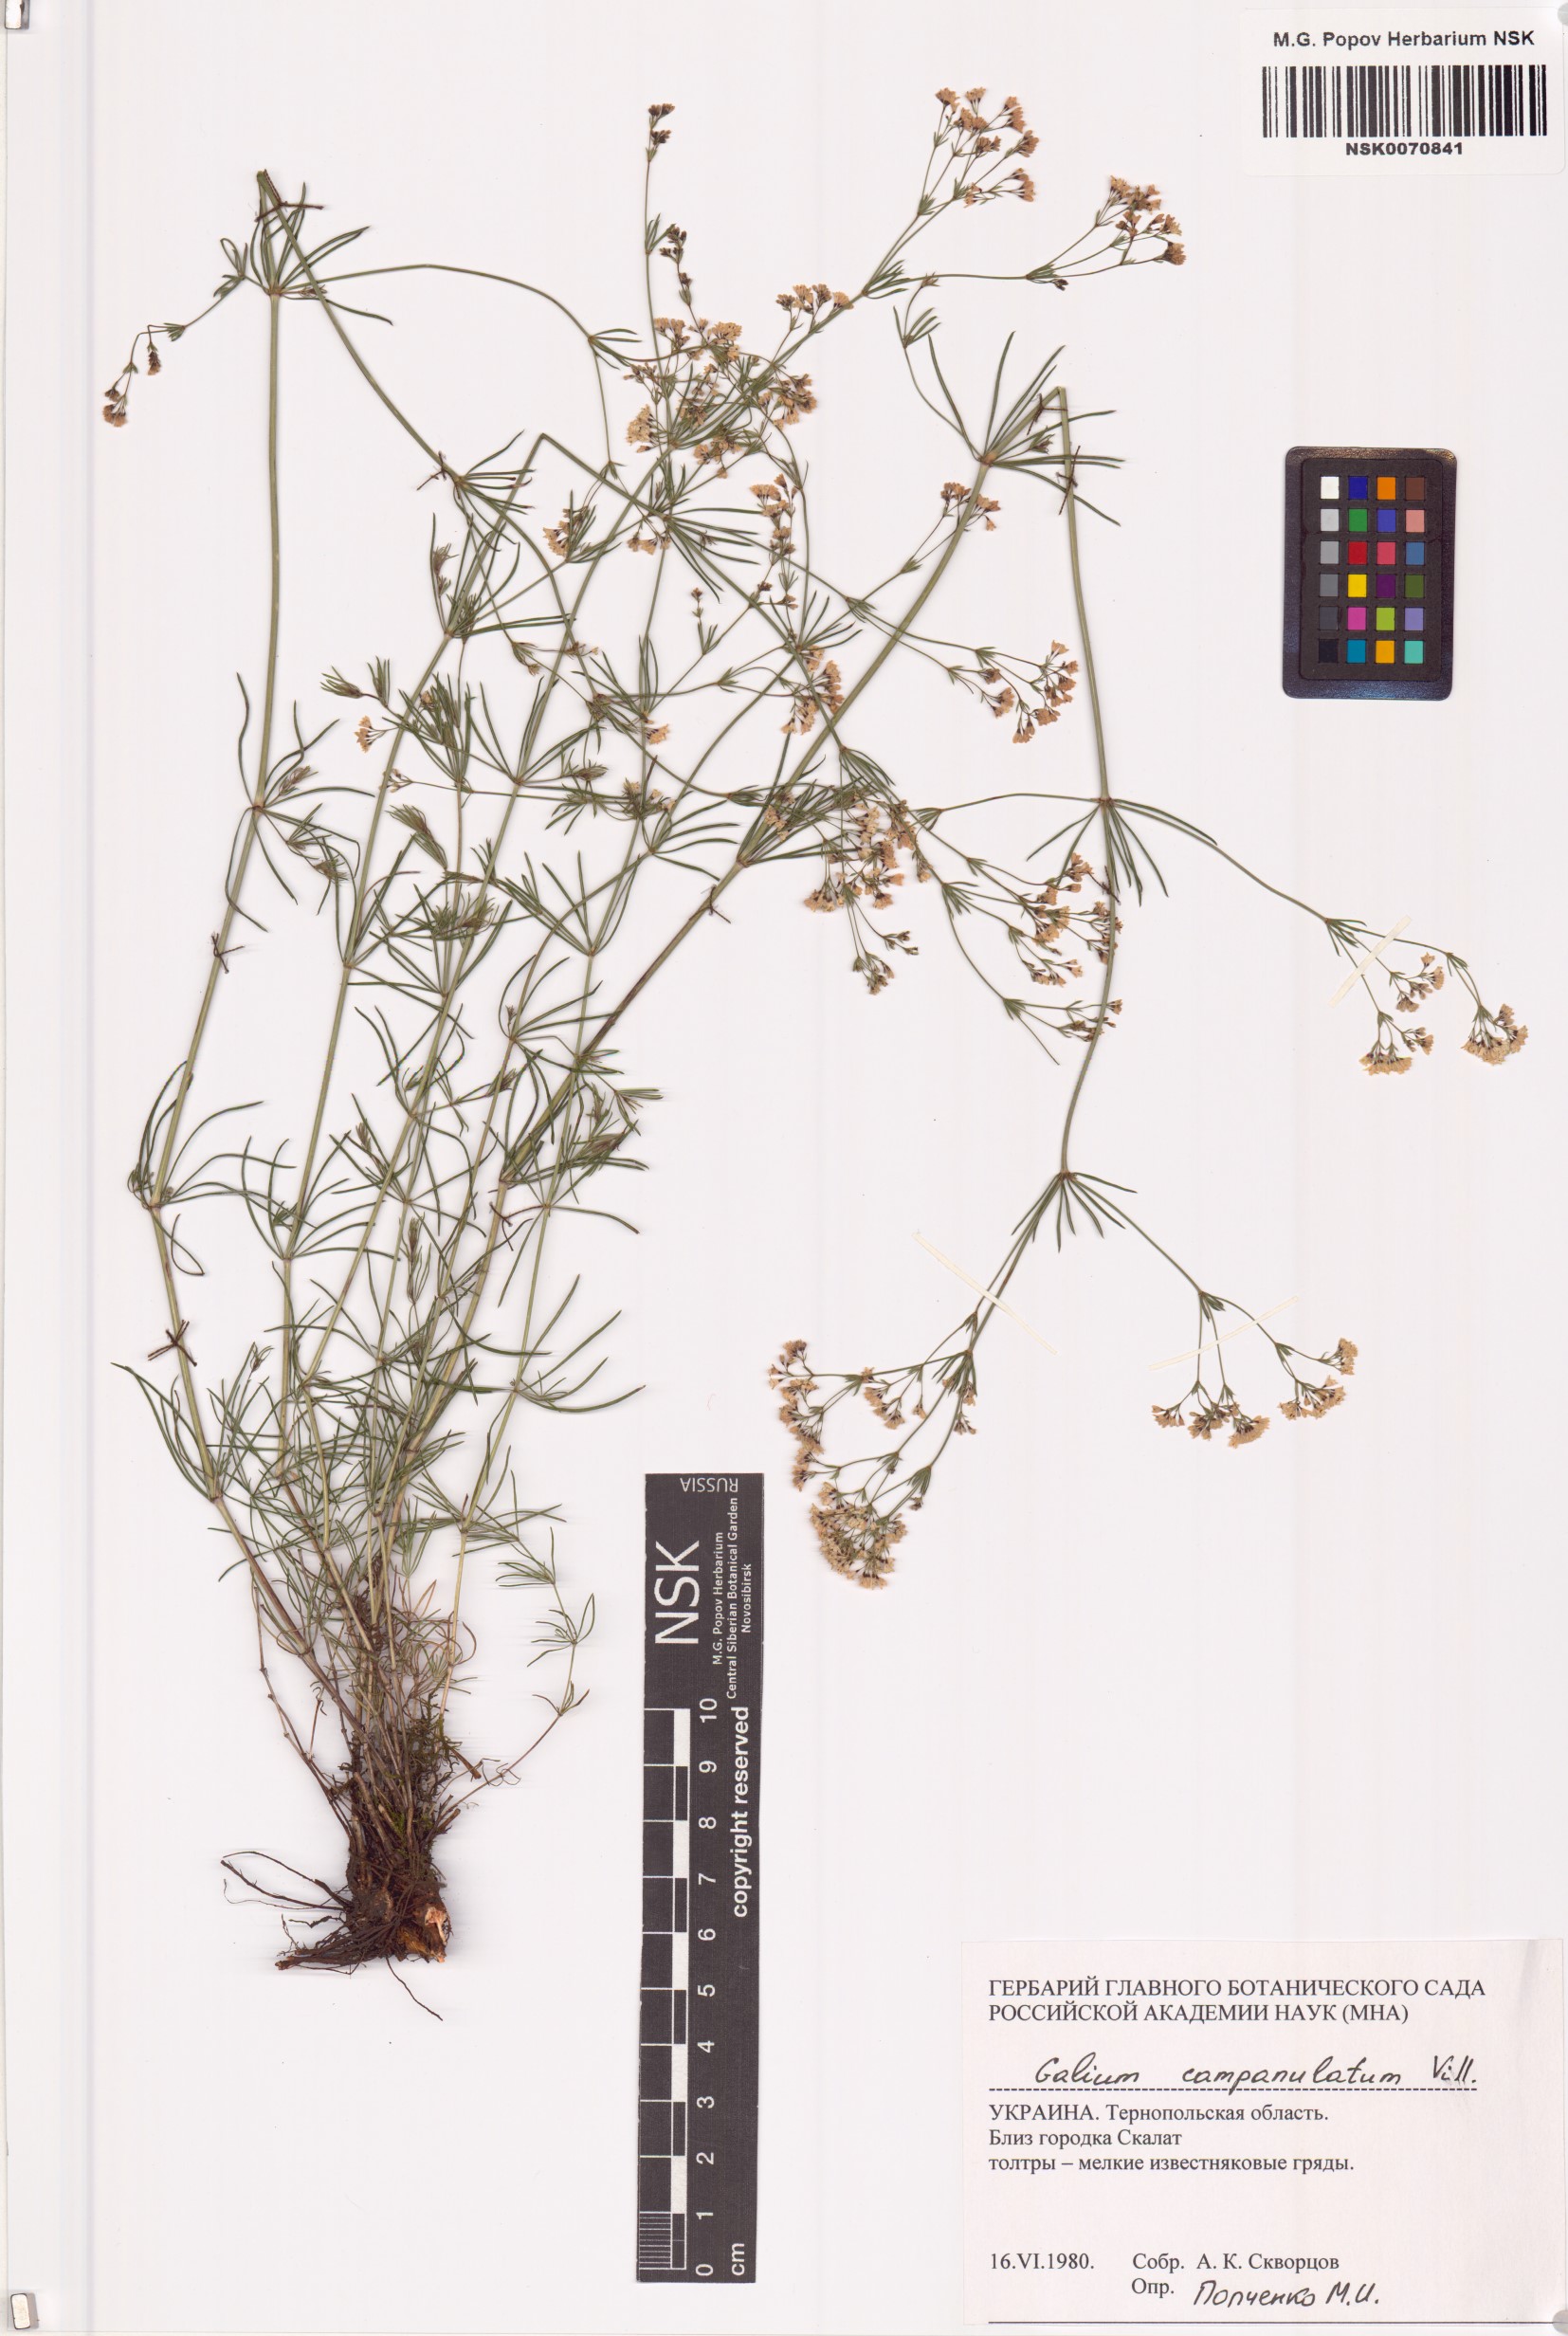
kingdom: Plantae
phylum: Tracheophyta
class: Magnoliopsida
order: Gentianales
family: Rubiaceae
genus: Galium
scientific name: Galium glaucum
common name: Waxy bedstraw
